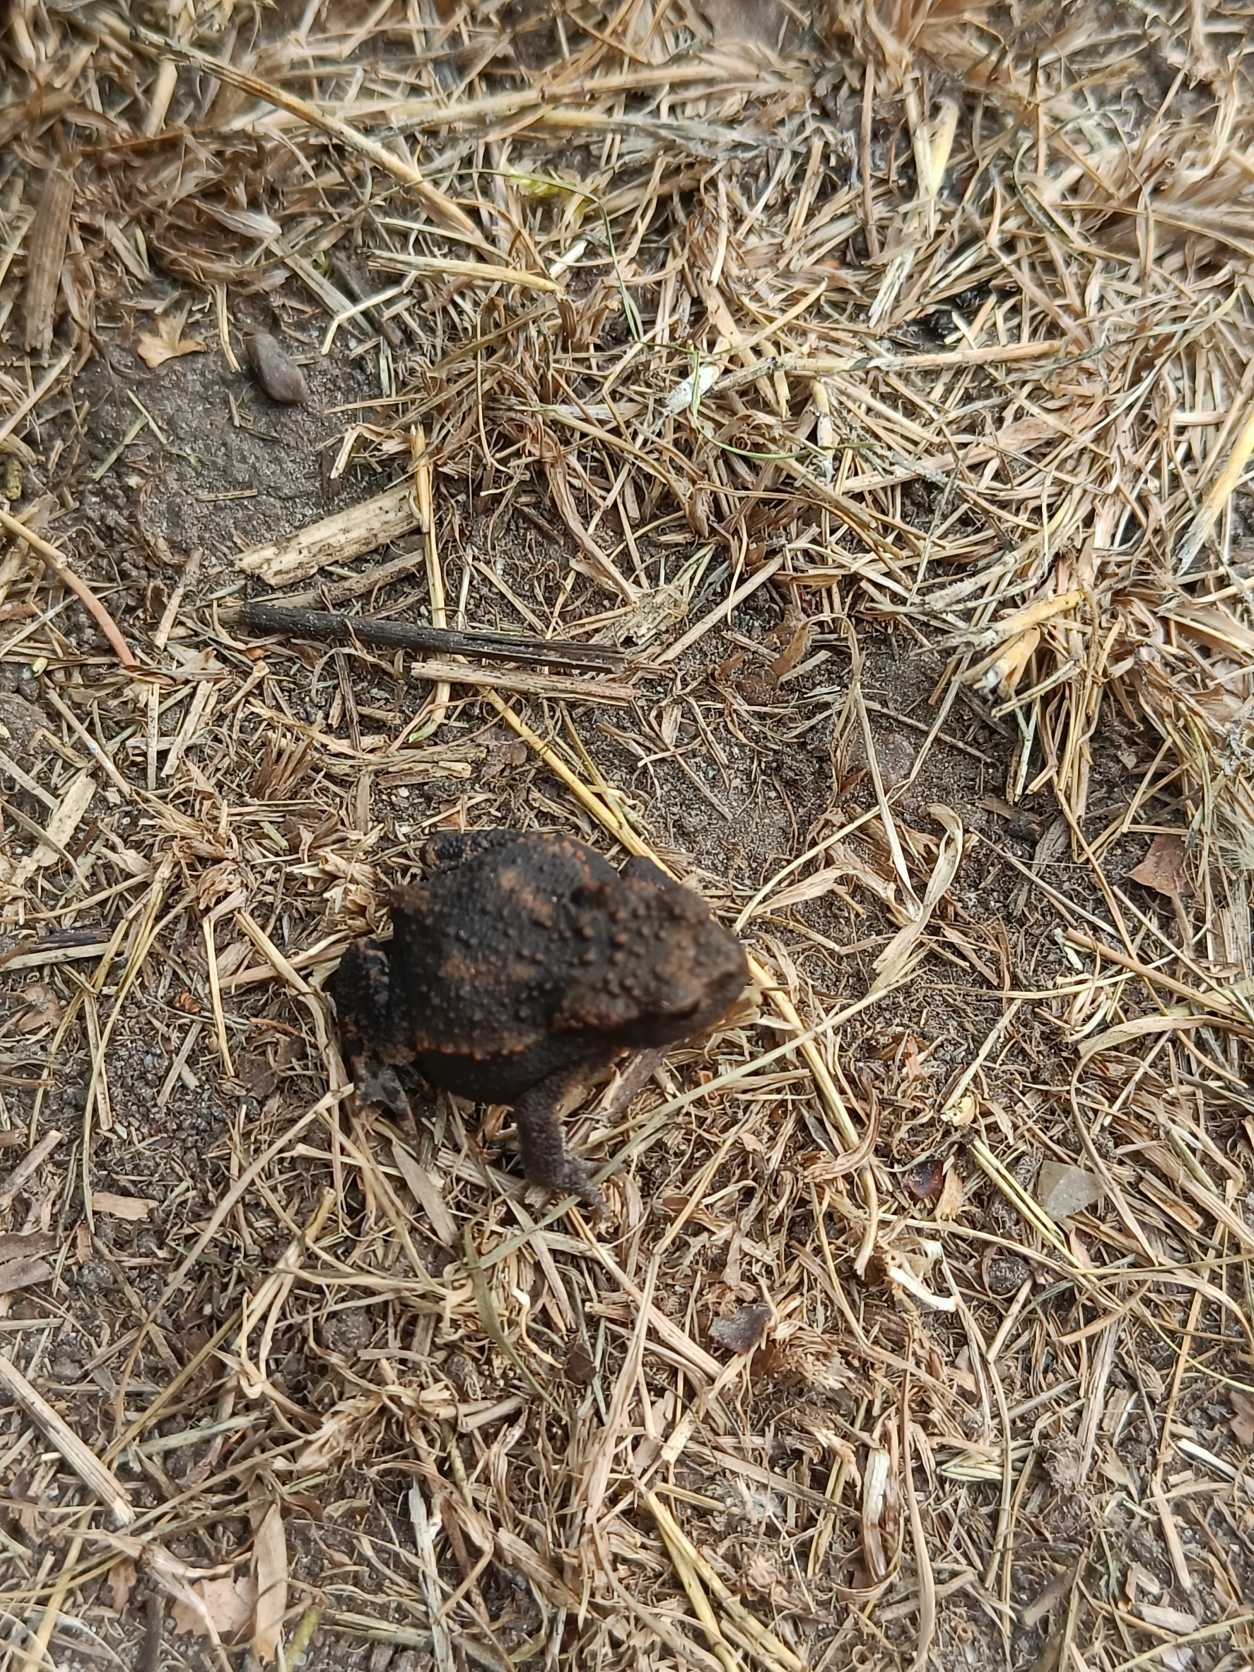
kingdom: Animalia
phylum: Chordata
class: Amphibia
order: Anura
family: Bufonidae
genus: Bufo
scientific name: Bufo bufo
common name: Skrubtudse
